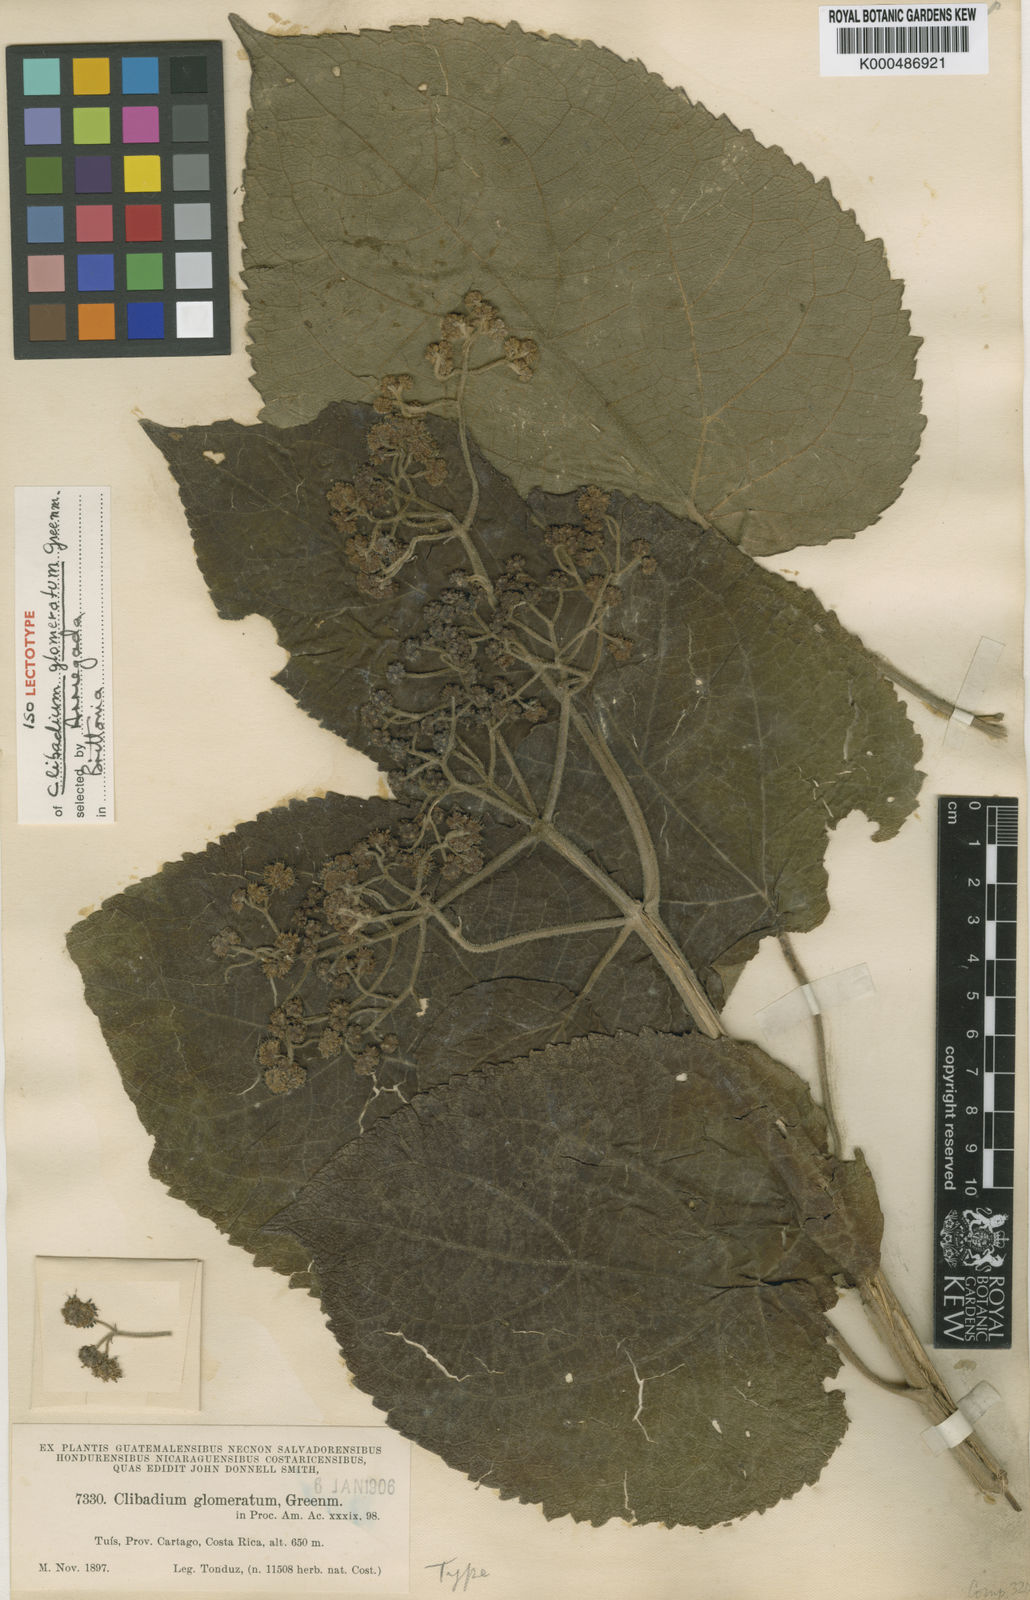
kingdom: Plantae
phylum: Tracheophyta
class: Magnoliopsida
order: Asterales
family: Asteraceae
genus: Clibadium
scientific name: Clibadium glomeratum
